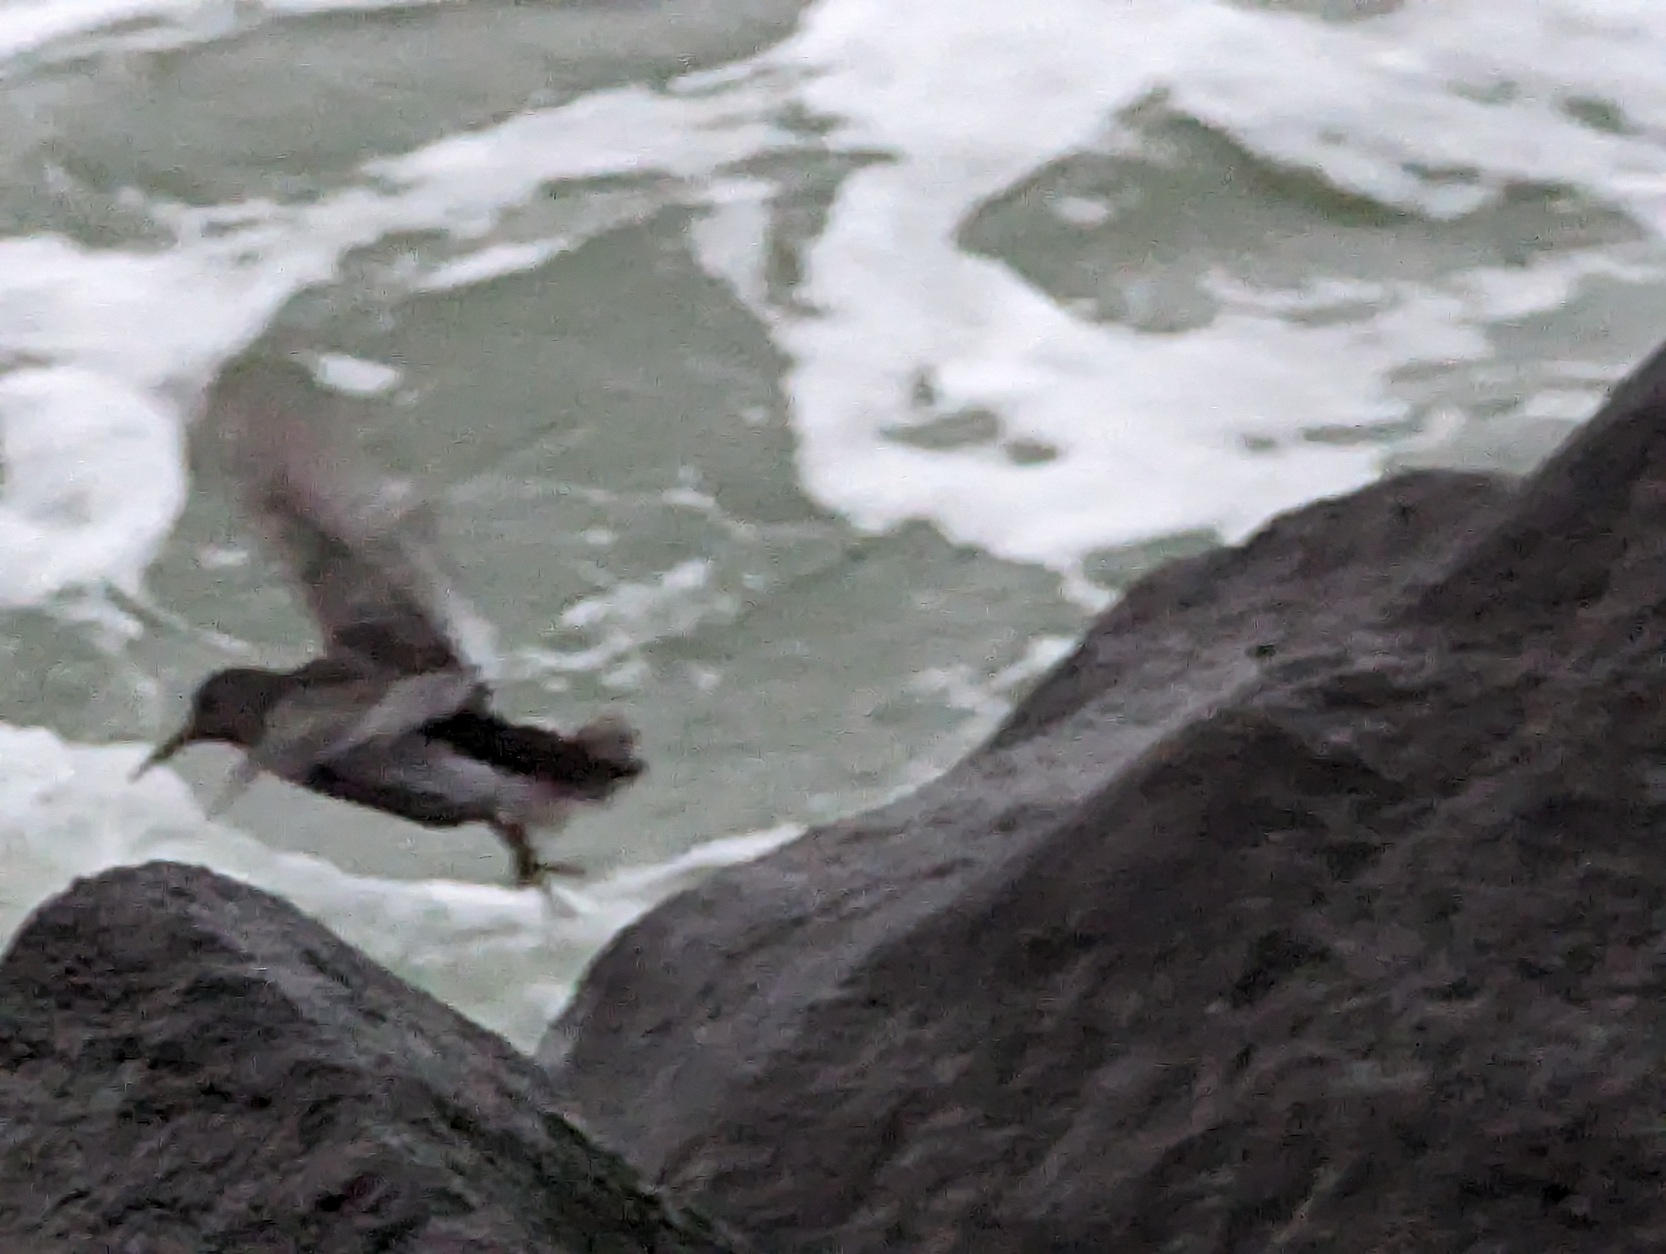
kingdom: Animalia
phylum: Chordata
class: Aves
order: Charadriiformes
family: Scolopacidae
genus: Calidris
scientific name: Calidris maritima
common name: Sortgrå ryle
